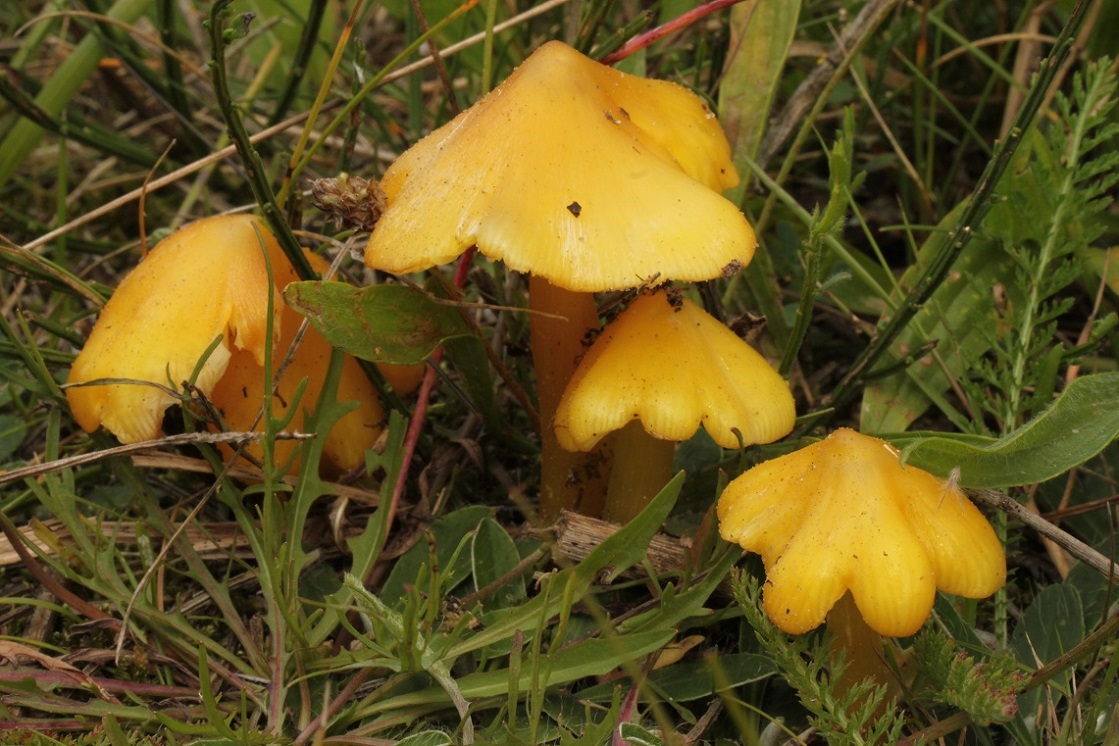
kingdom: Fungi
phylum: Basidiomycota
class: Agaricomycetes
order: Agaricales
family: Hygrophoraceae
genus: Hygrocybe
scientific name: Hygrocybe acutoconica
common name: spidspuklet vokshat
